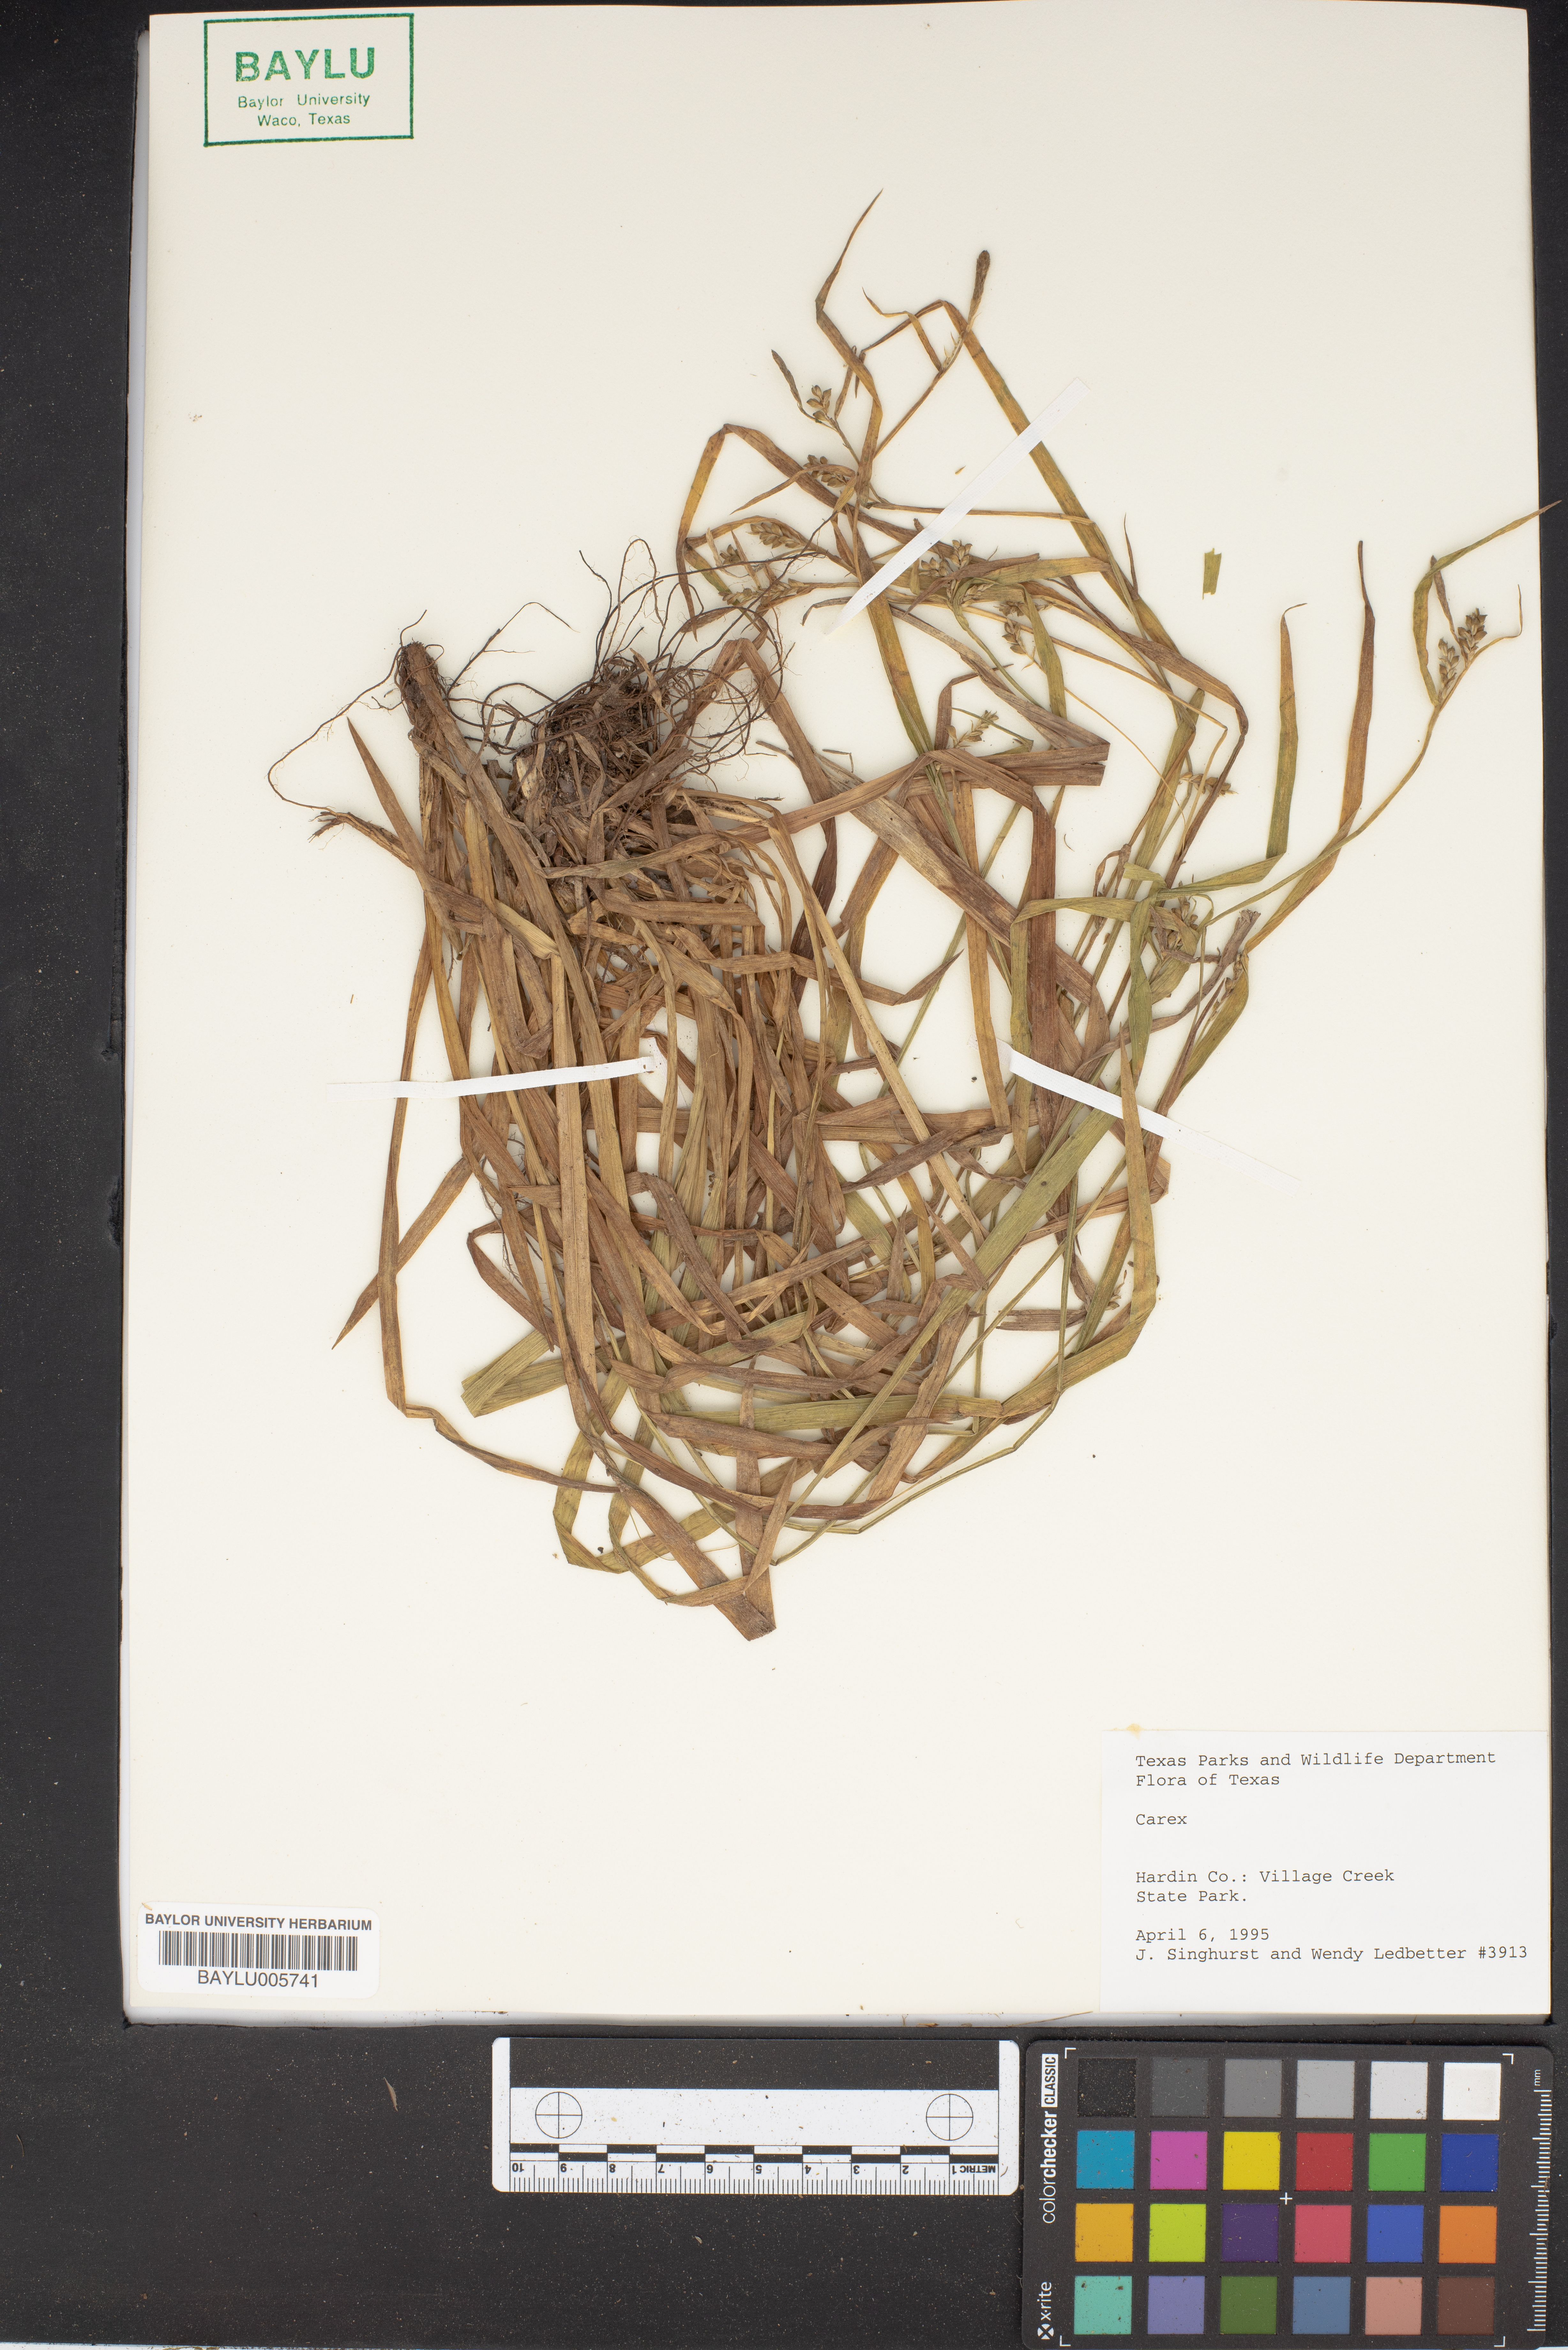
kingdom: Plantae
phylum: Tracheophyta
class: Liliopsida
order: Poales
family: Cyperaceae
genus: Carex
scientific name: Carex
